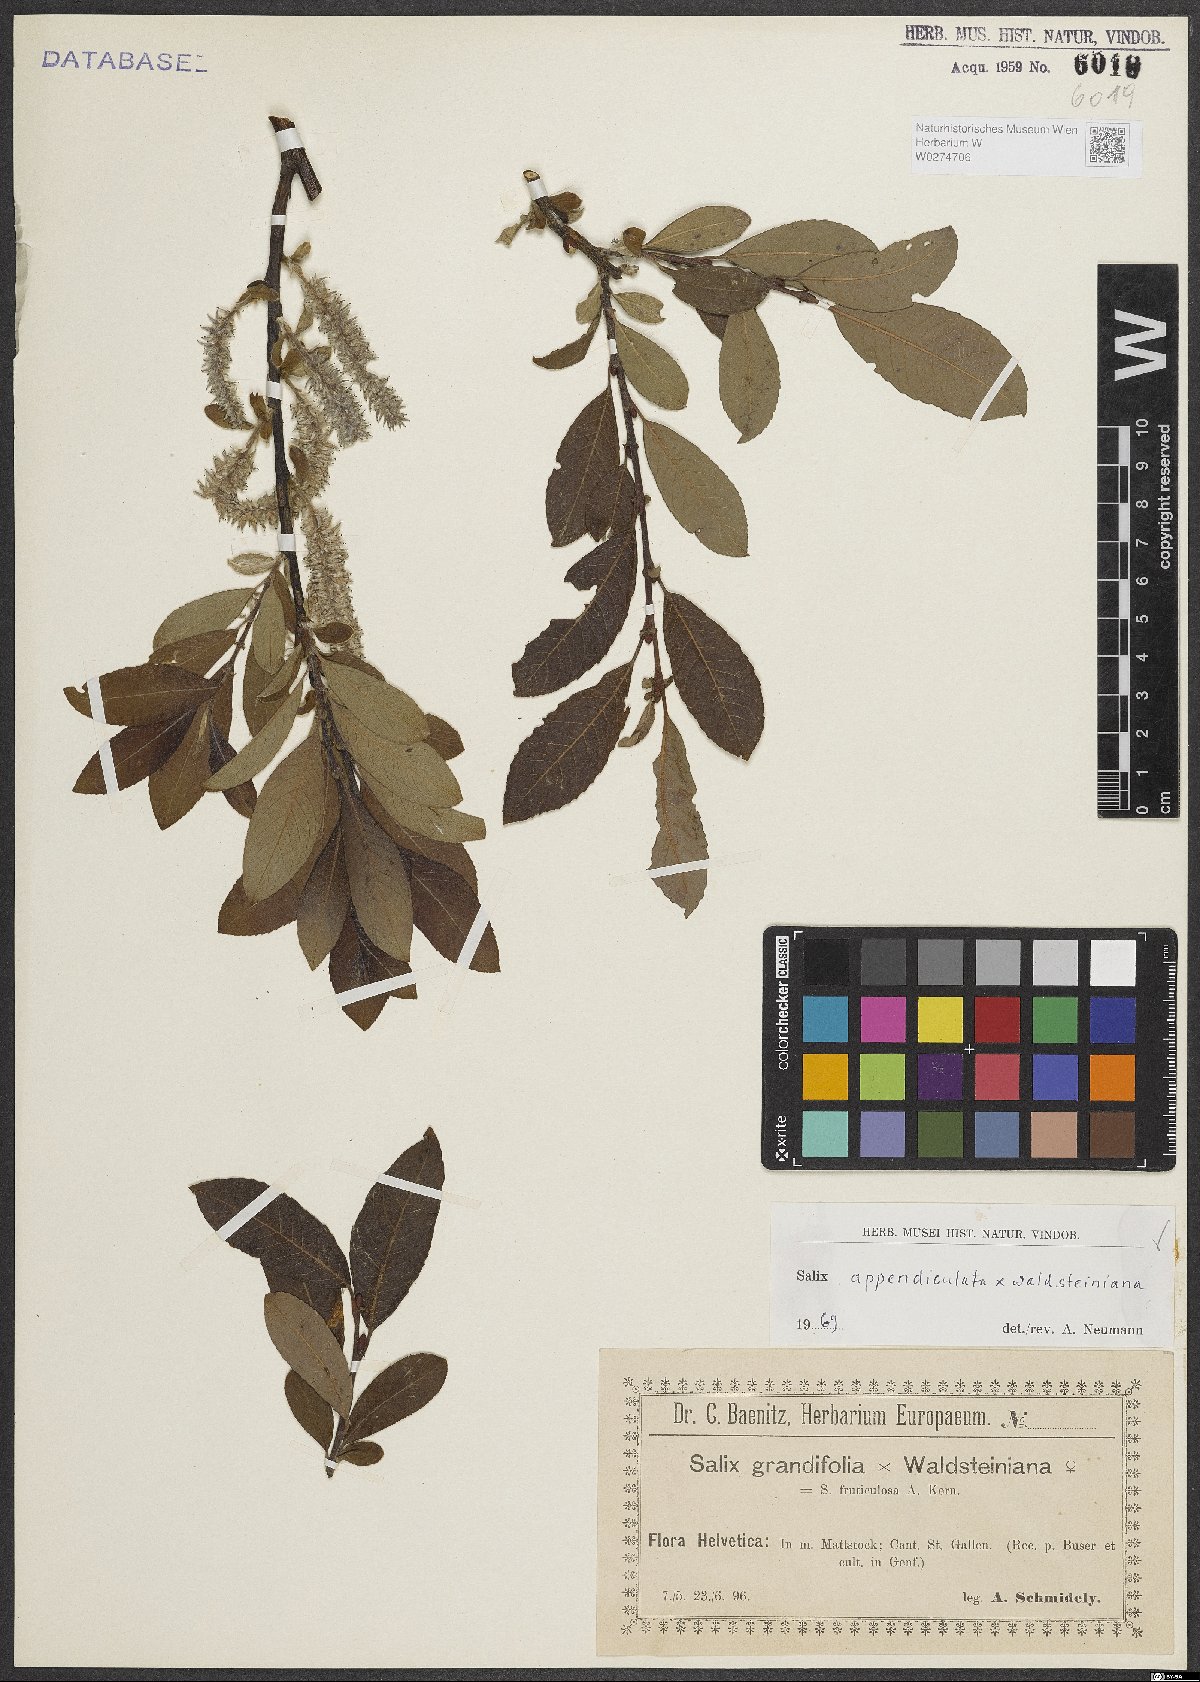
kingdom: Plantae
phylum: Tracheophyta
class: Magnoliopsida
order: Malpighiales
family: Salicaceae
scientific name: Salicaceae
